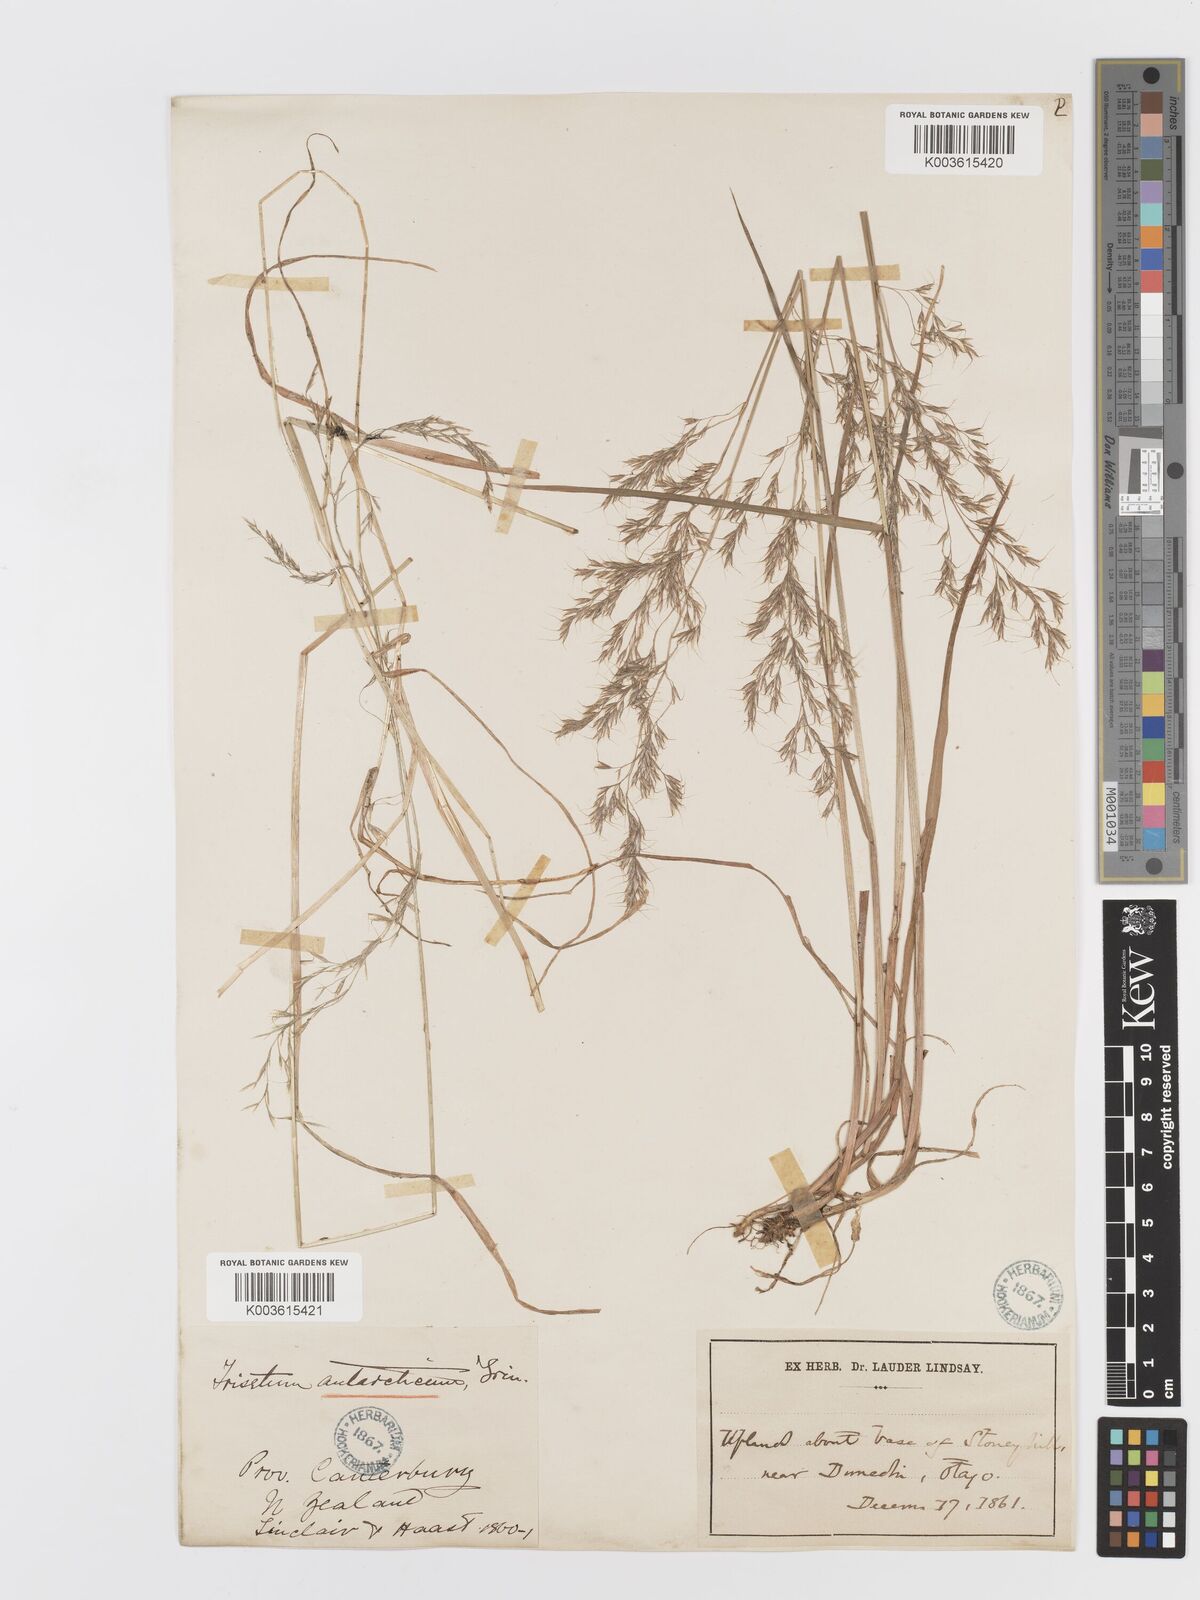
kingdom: Plantae
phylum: Tracheophyta
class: Liliopsida
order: Poales
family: Poaceae
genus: Koeleria
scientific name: Koeleria antarctica
